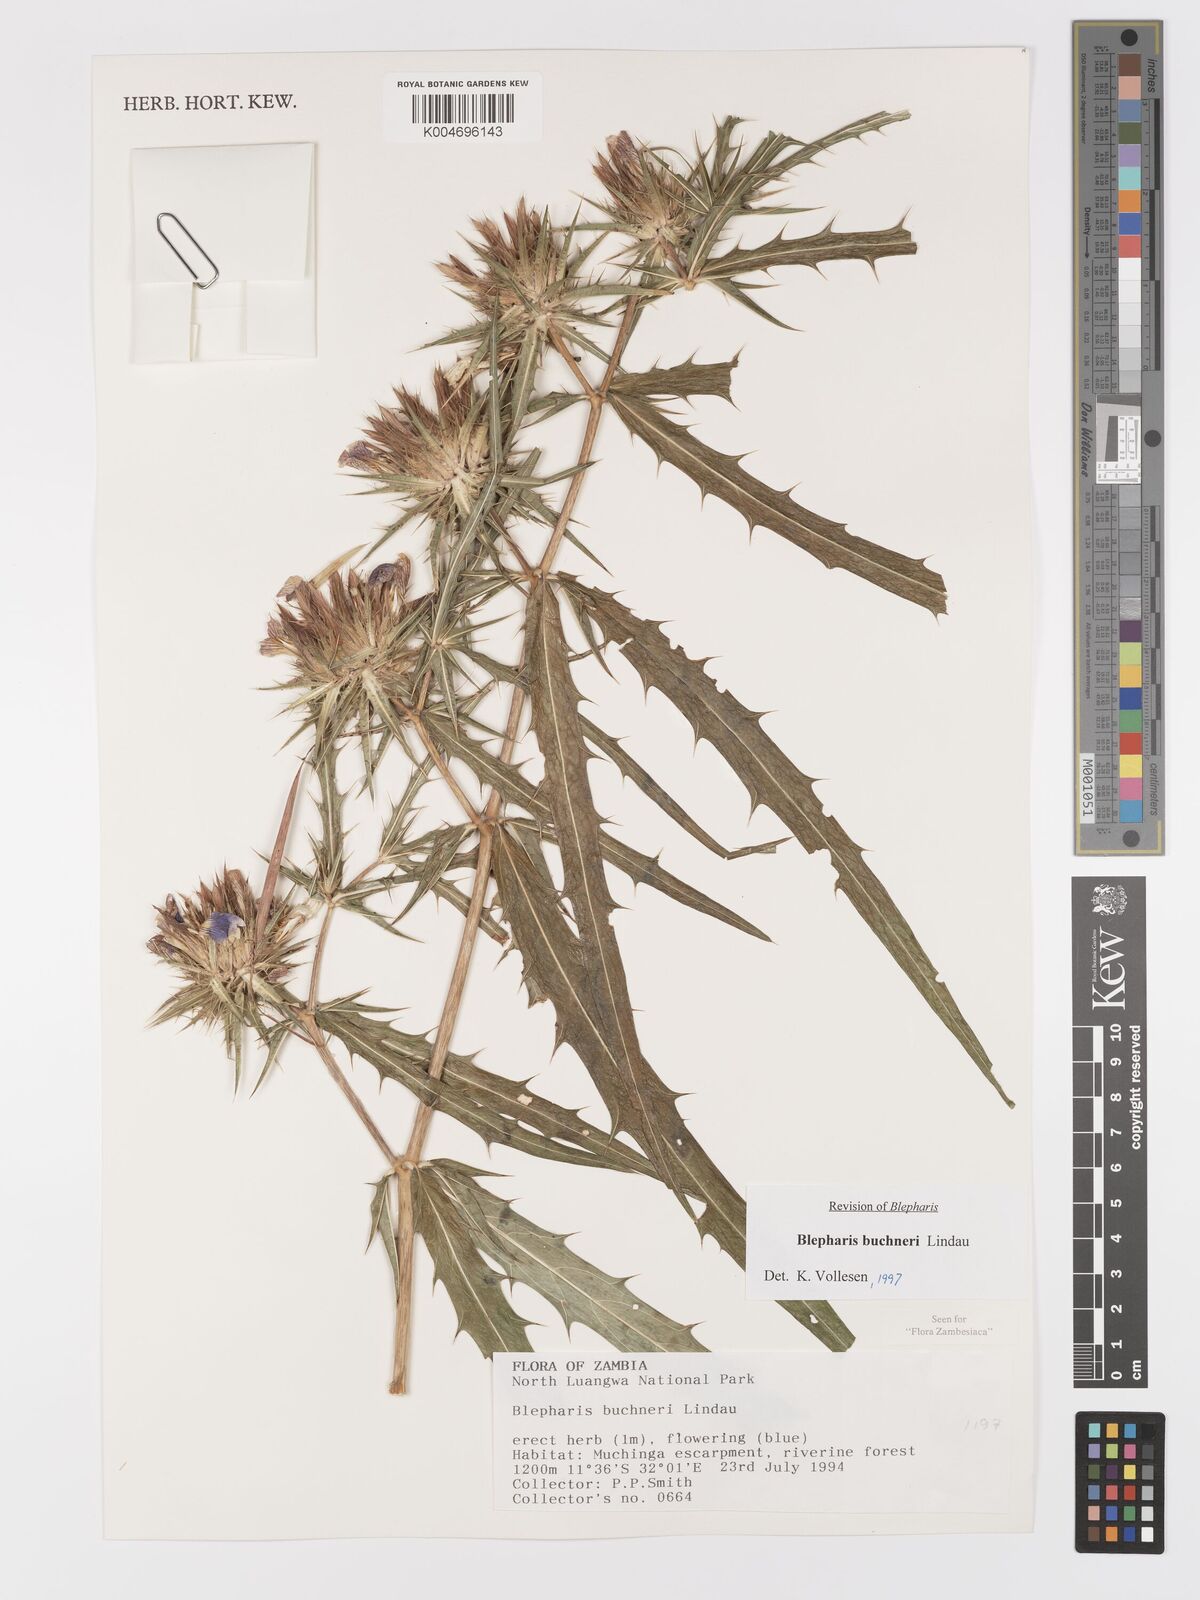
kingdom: Plantae
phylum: Tracheophyta
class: Magnoliopsida
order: Lamiales
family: Acanthaceae
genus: Blepharis
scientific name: Blepharis buchneri
